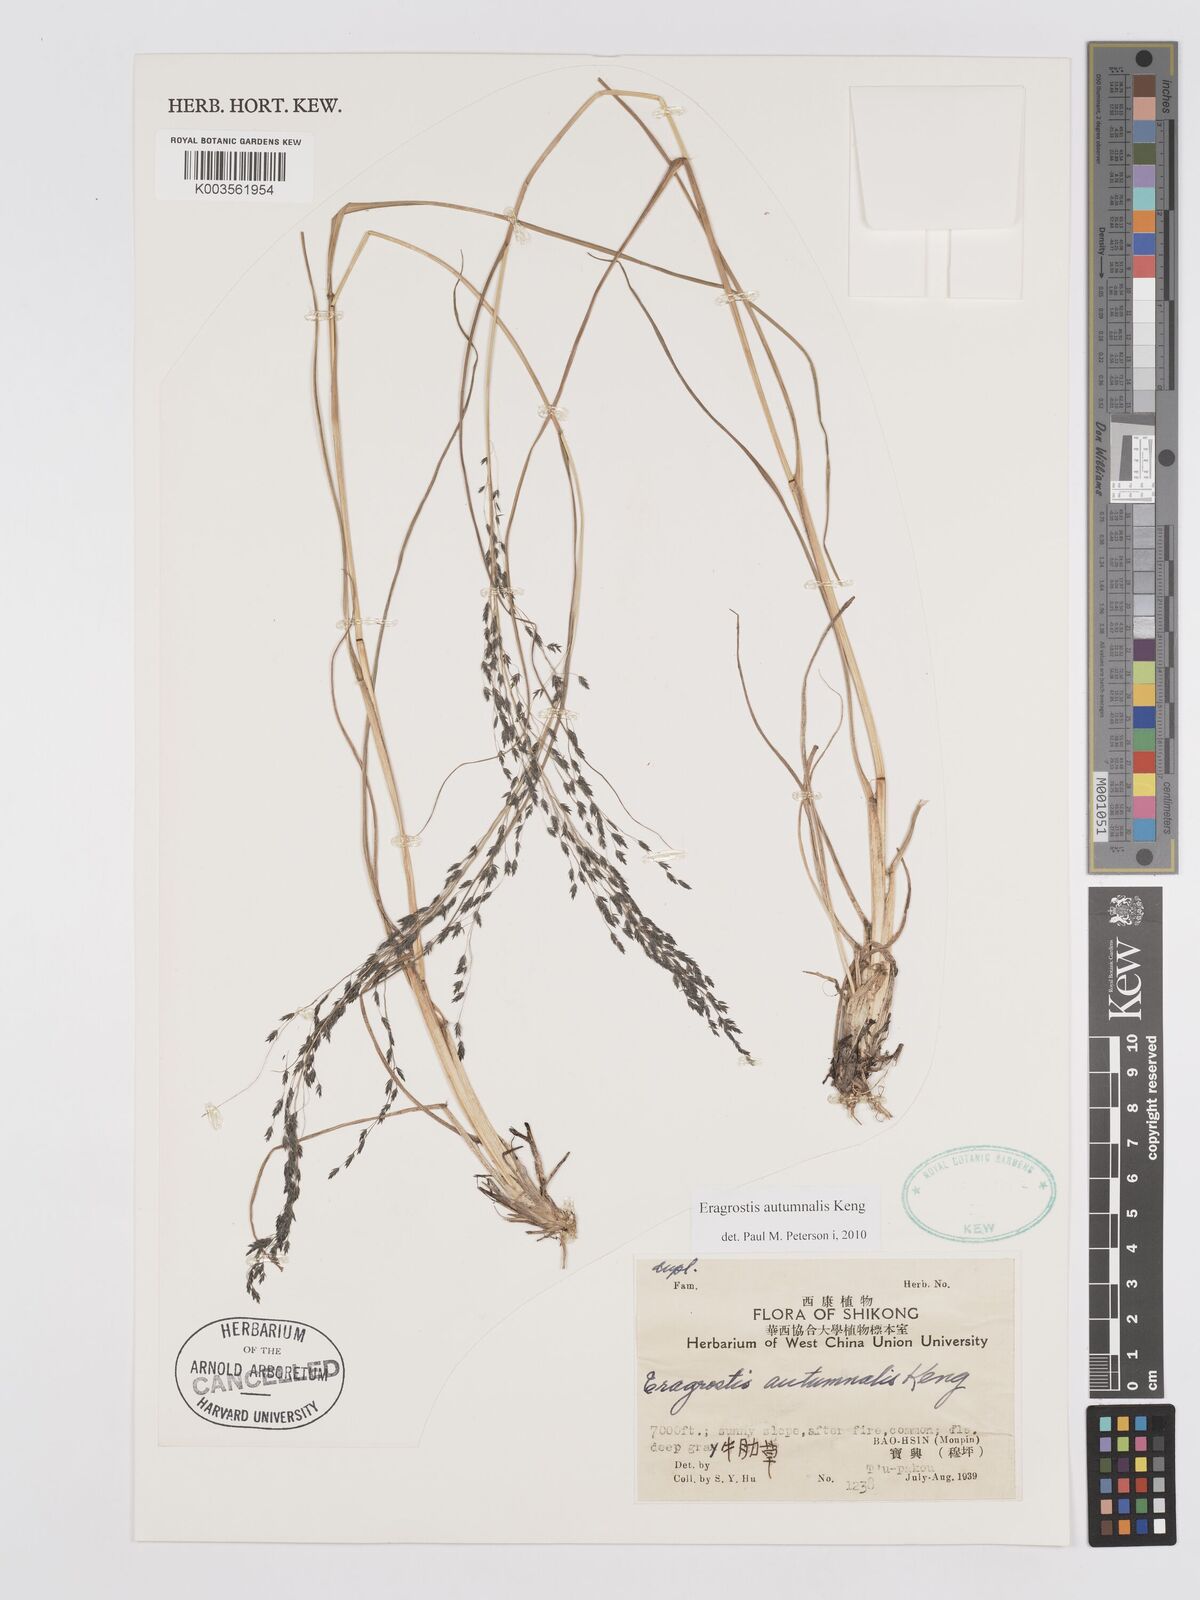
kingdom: Plantae
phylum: Tracheophyta
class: Liliopsida
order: Poales
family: Poaceae
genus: Eragrostis
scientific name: Eragrostis autumnalis
